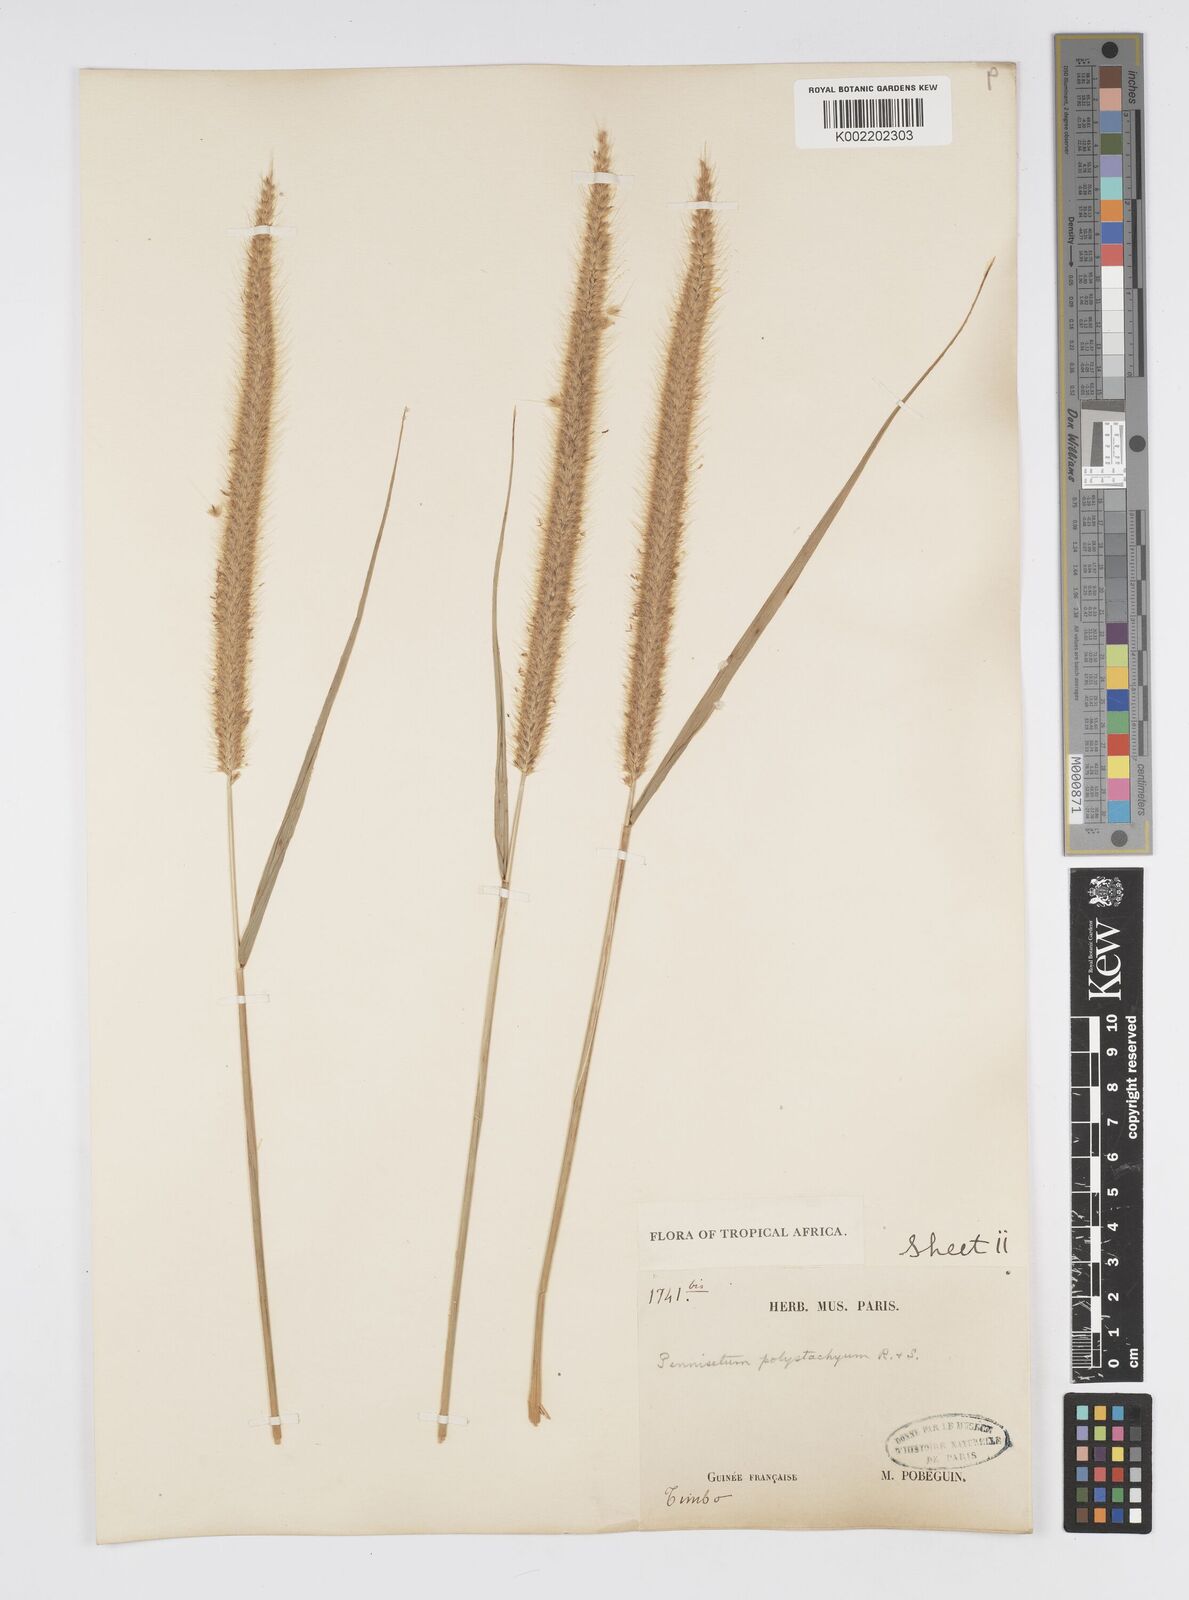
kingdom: Plantae
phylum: Tracheophyta
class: Liliopsida
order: Poales
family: Poaceae
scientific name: Poaceae
